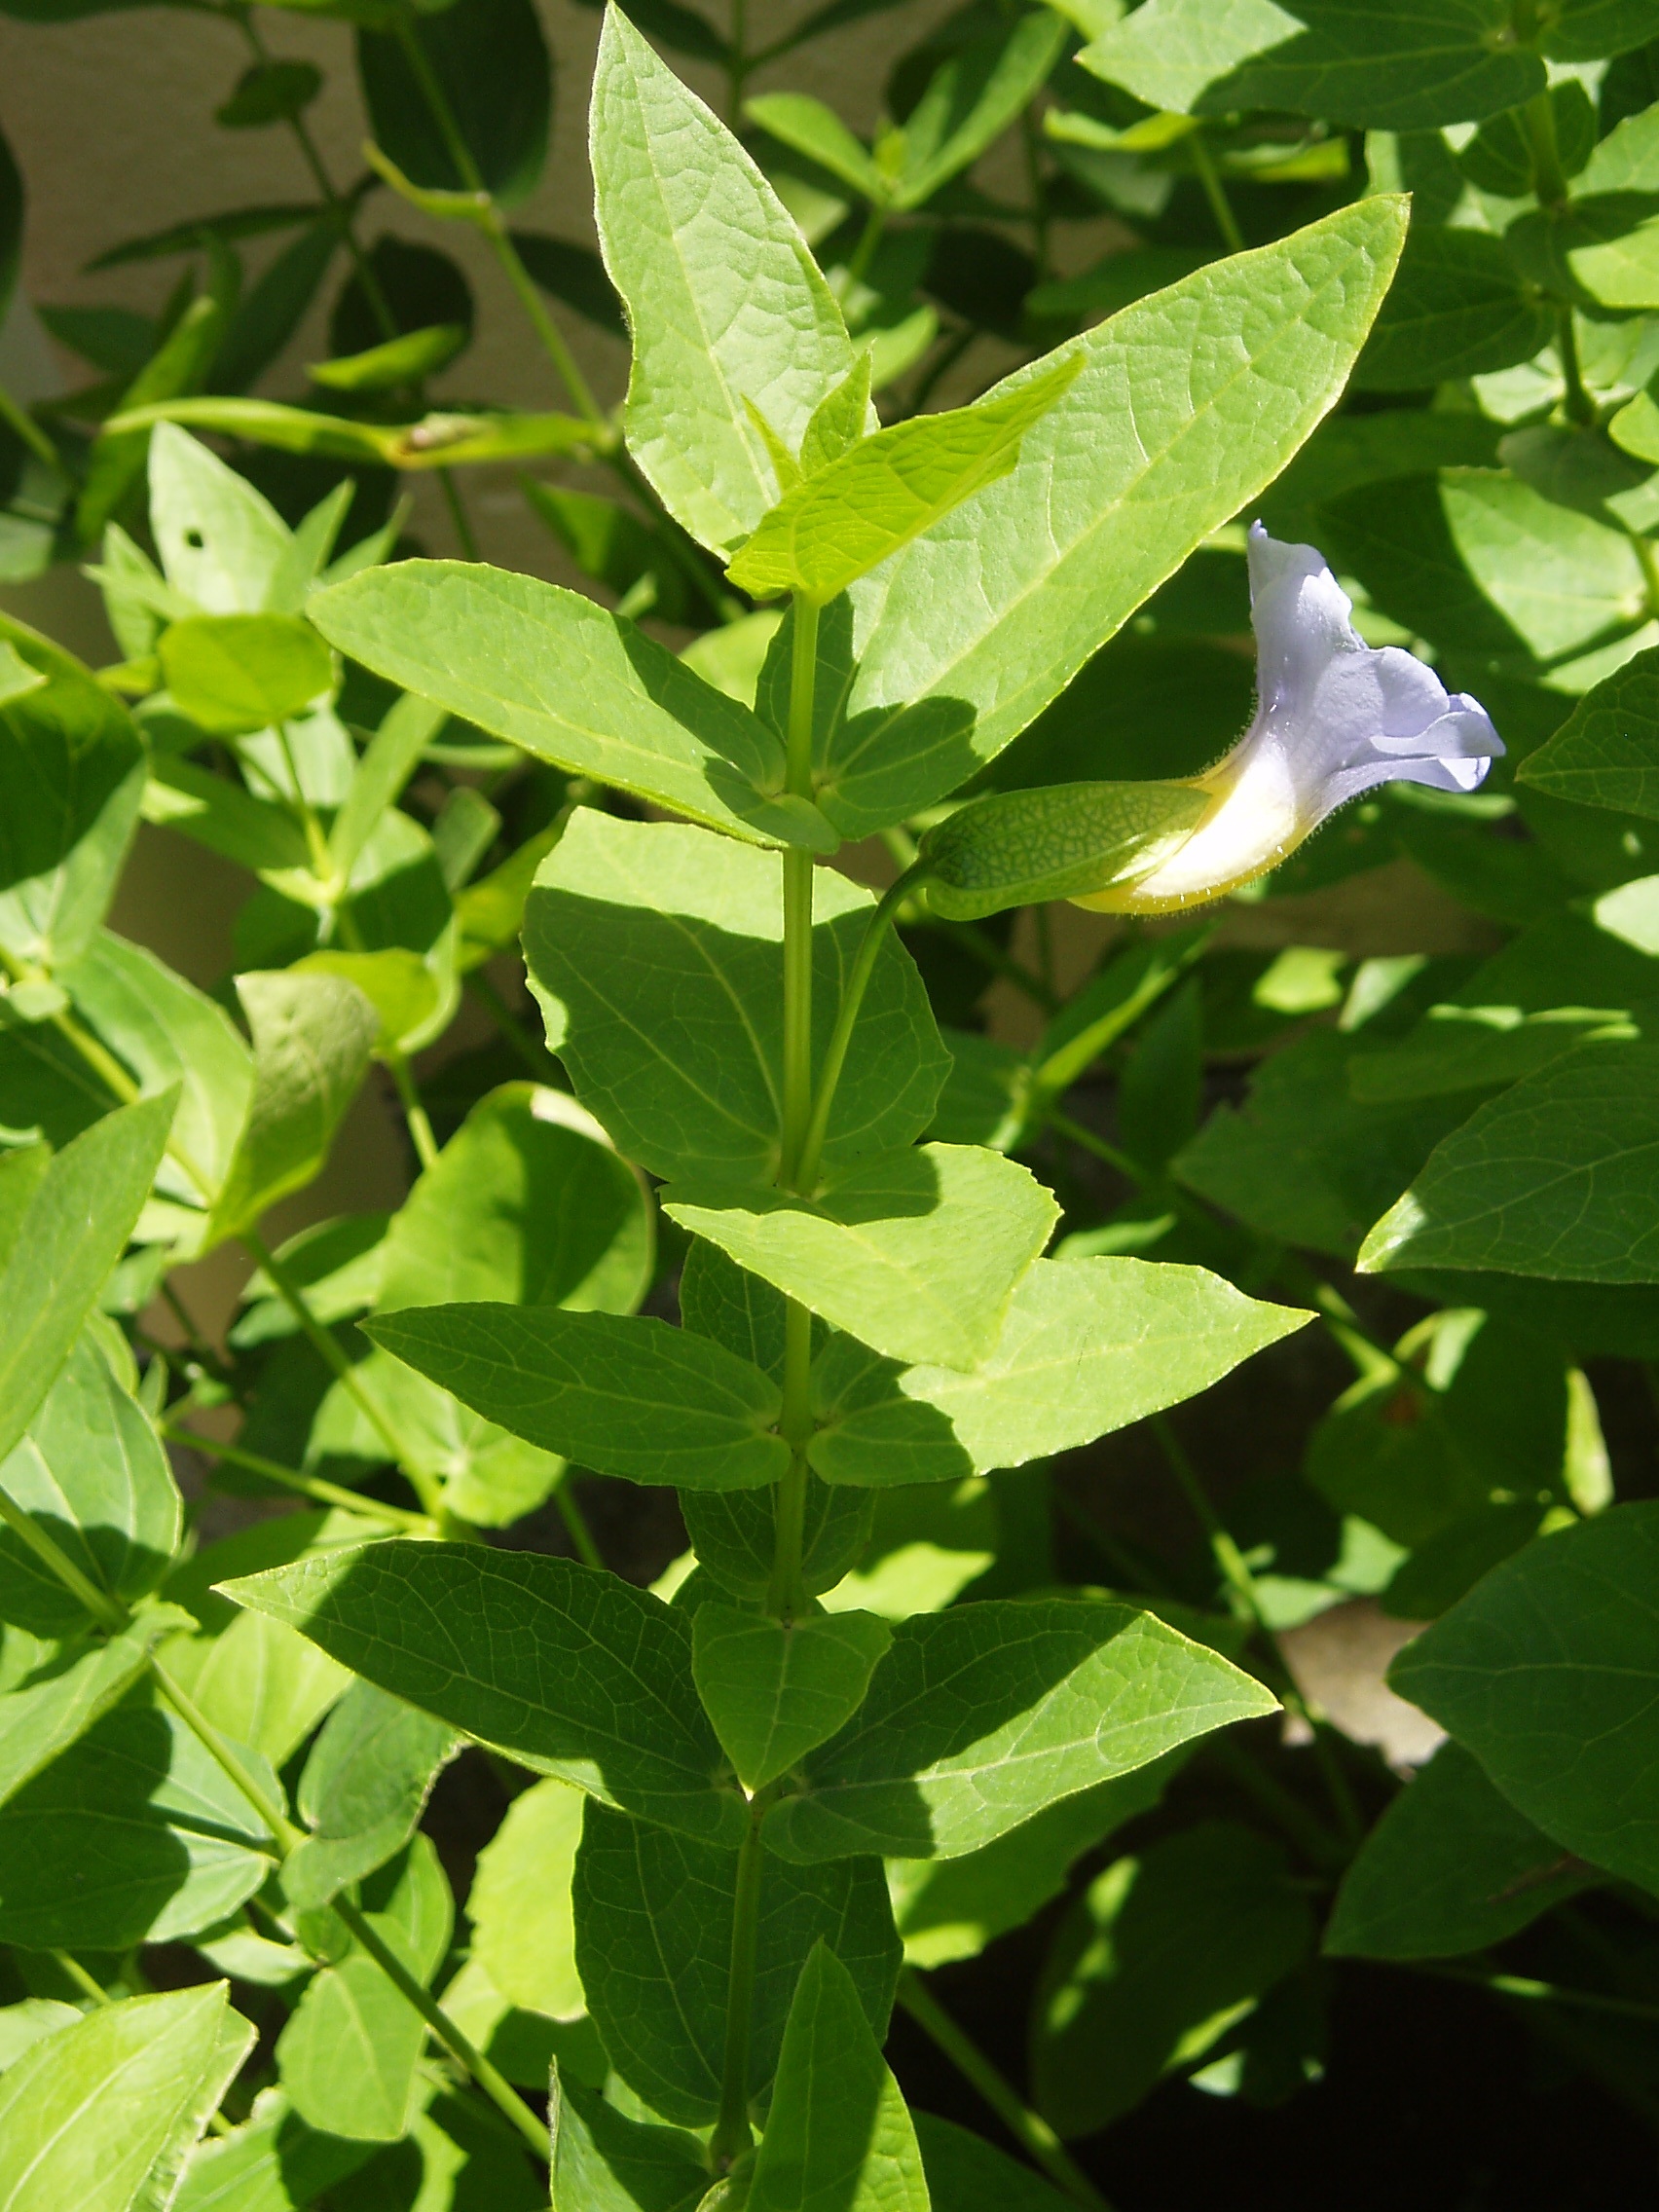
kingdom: Plantae
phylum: Tracheophyta
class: Magnoliopsida
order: Lamiales
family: Acanthaceae
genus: Thunbergia
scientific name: Thunbergia natalensis
